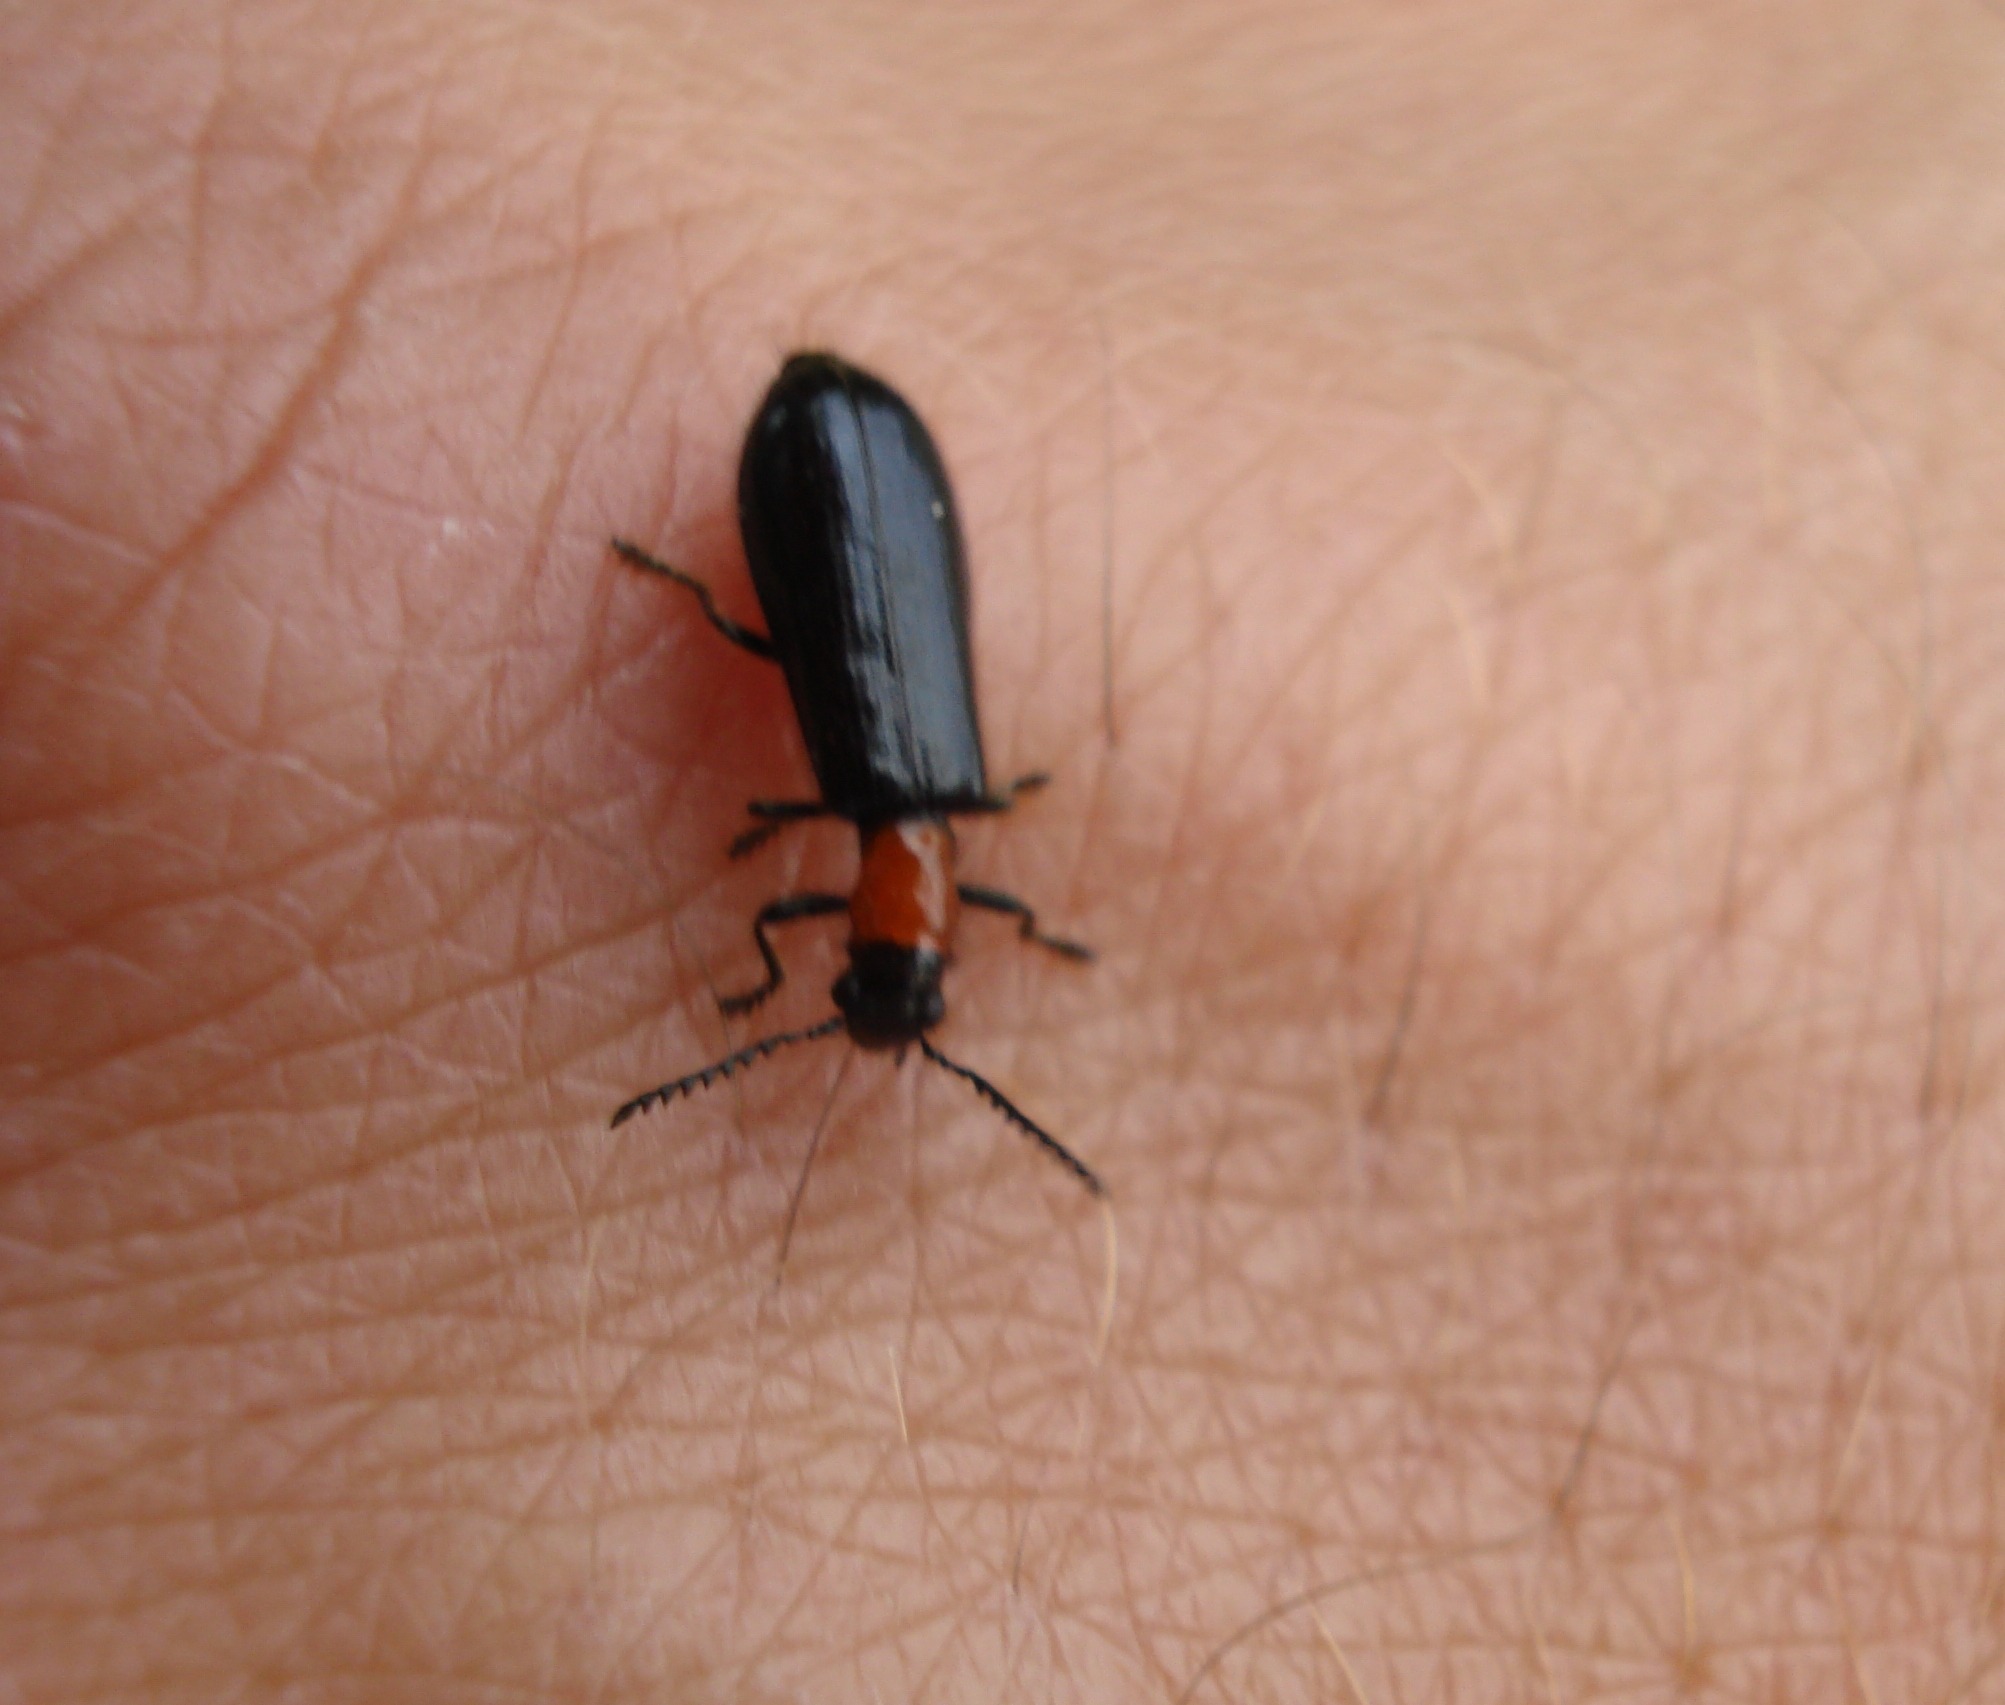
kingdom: Animalia
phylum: Arthropoda
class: Insecta
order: Coleoptera
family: Cleridae
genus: Tillus
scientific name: Tillus elongatus
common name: Blank myrebille
